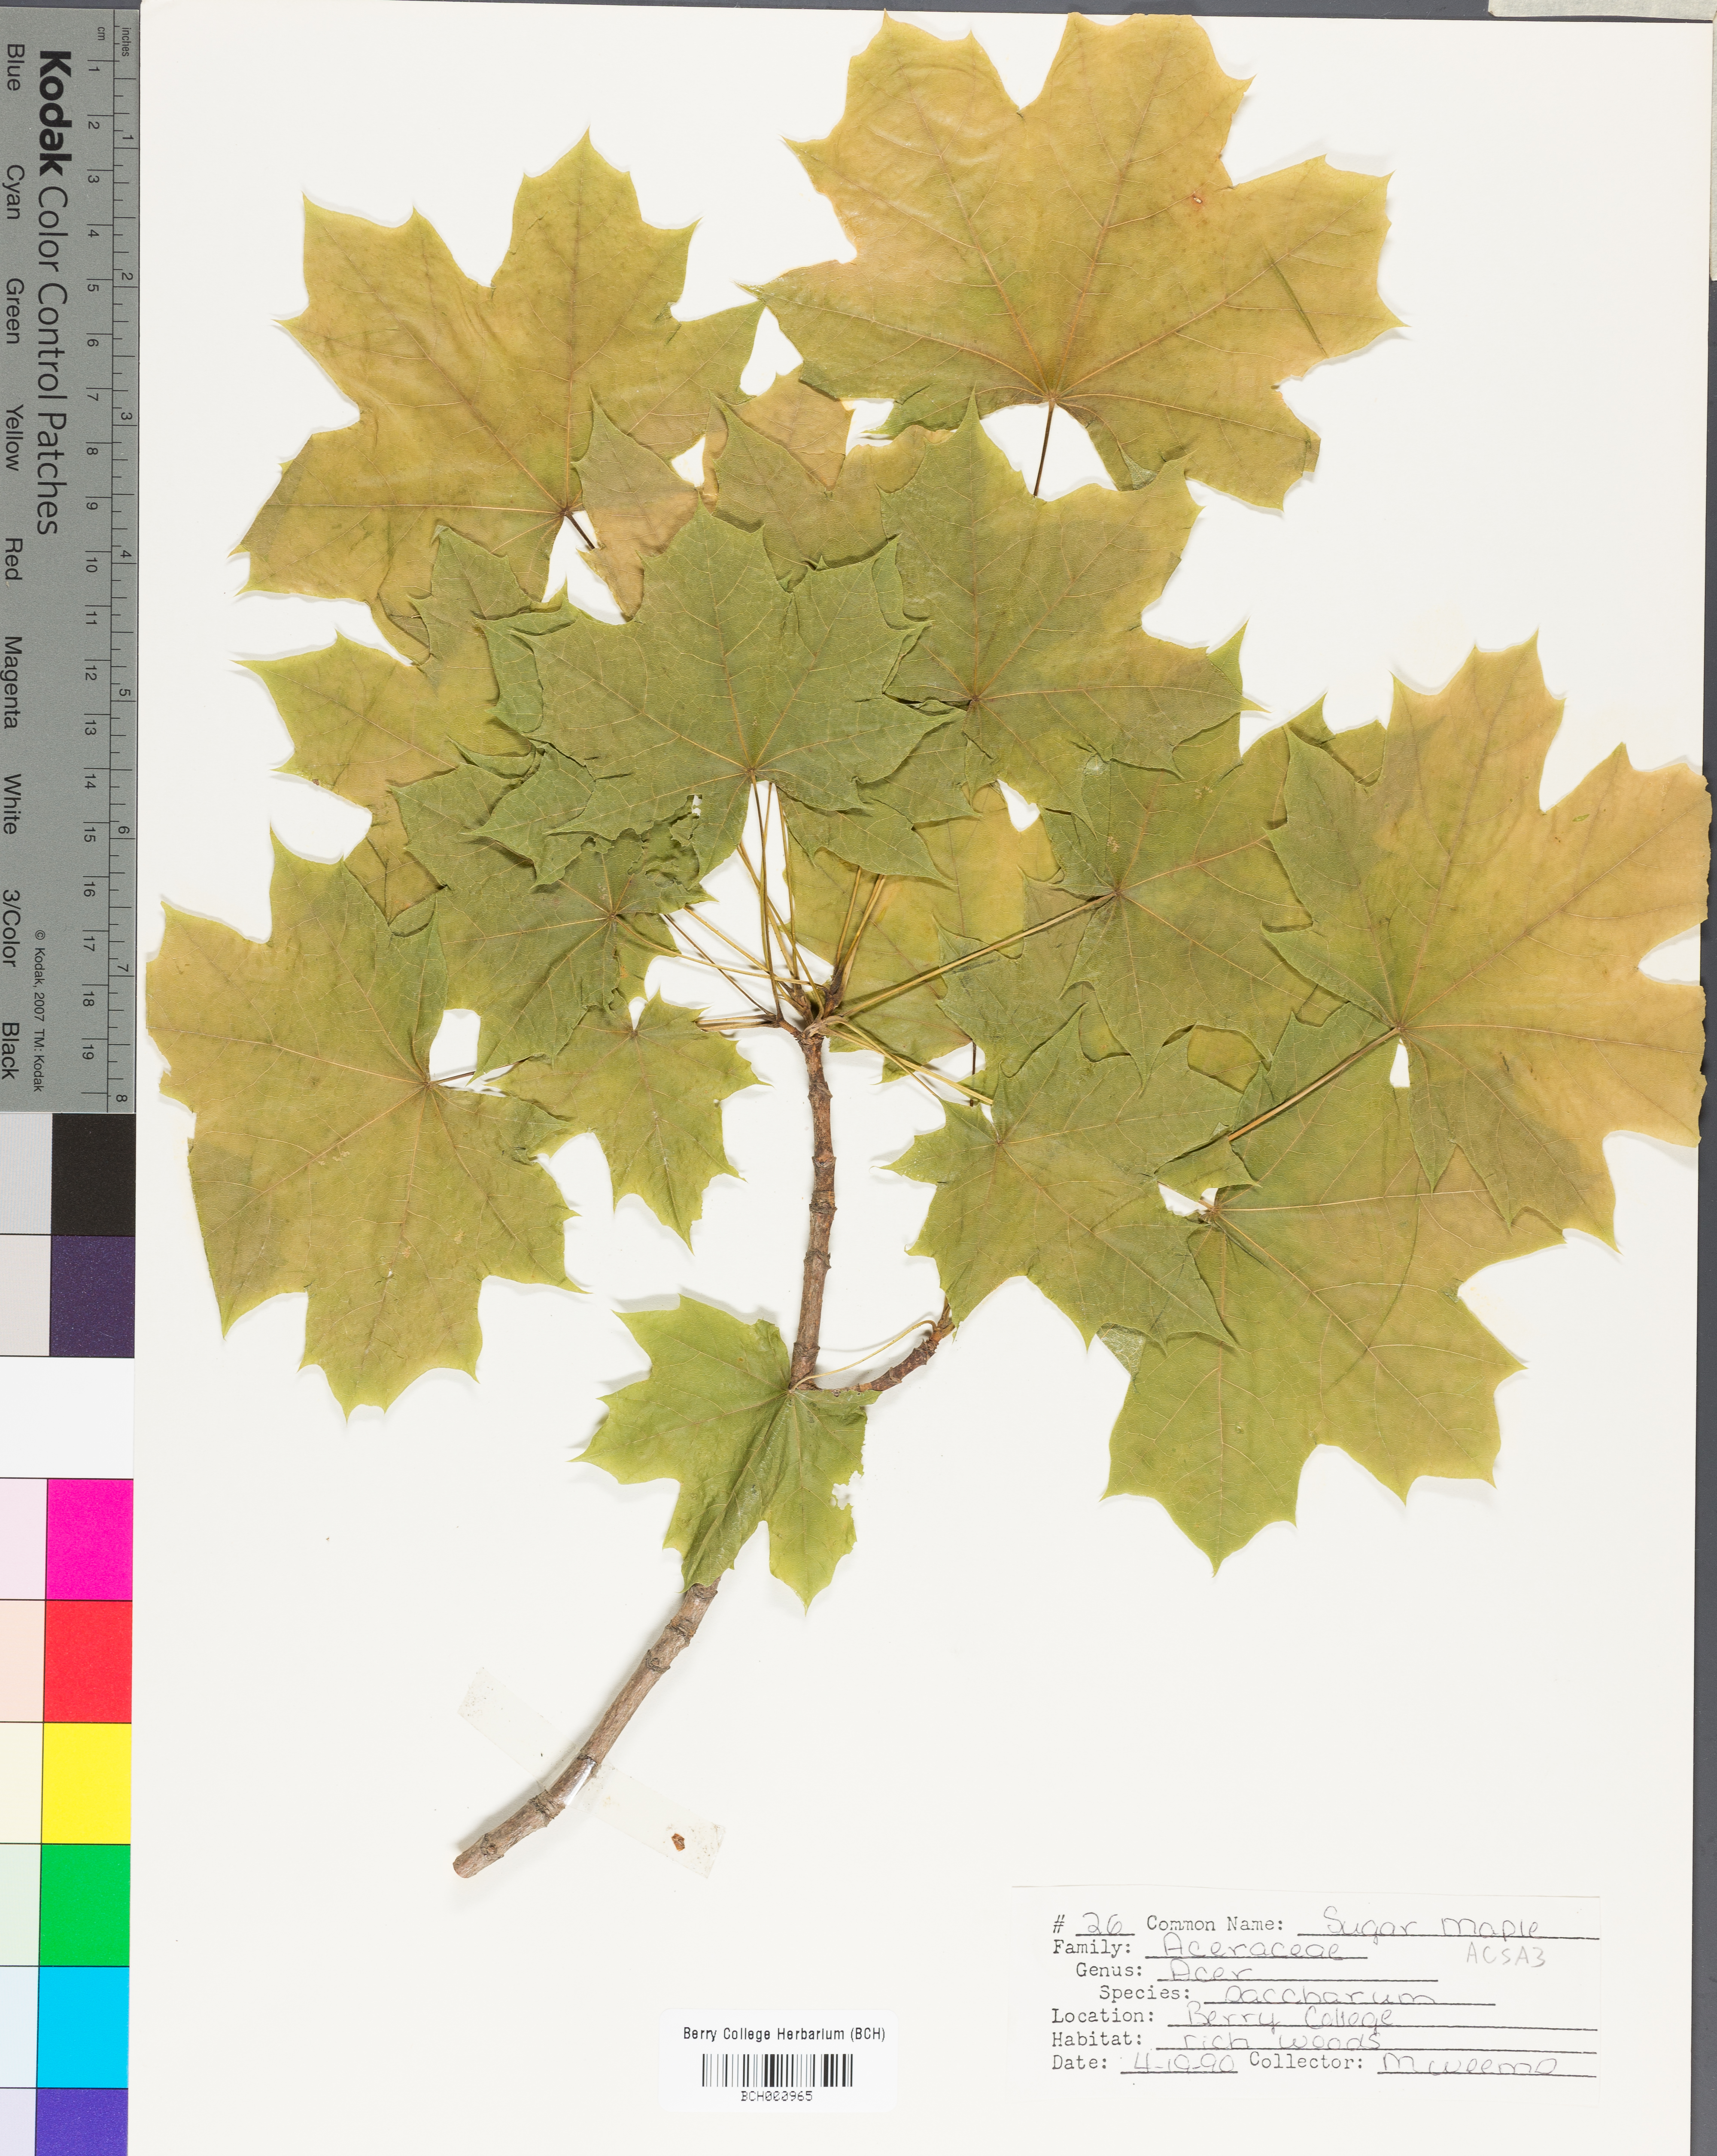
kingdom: Plantae
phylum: Tracheophyta
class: Magnoliopsida
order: Sapindales
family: Sapindaceae
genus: Acer
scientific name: Acer saccharum
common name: Sugar maple
